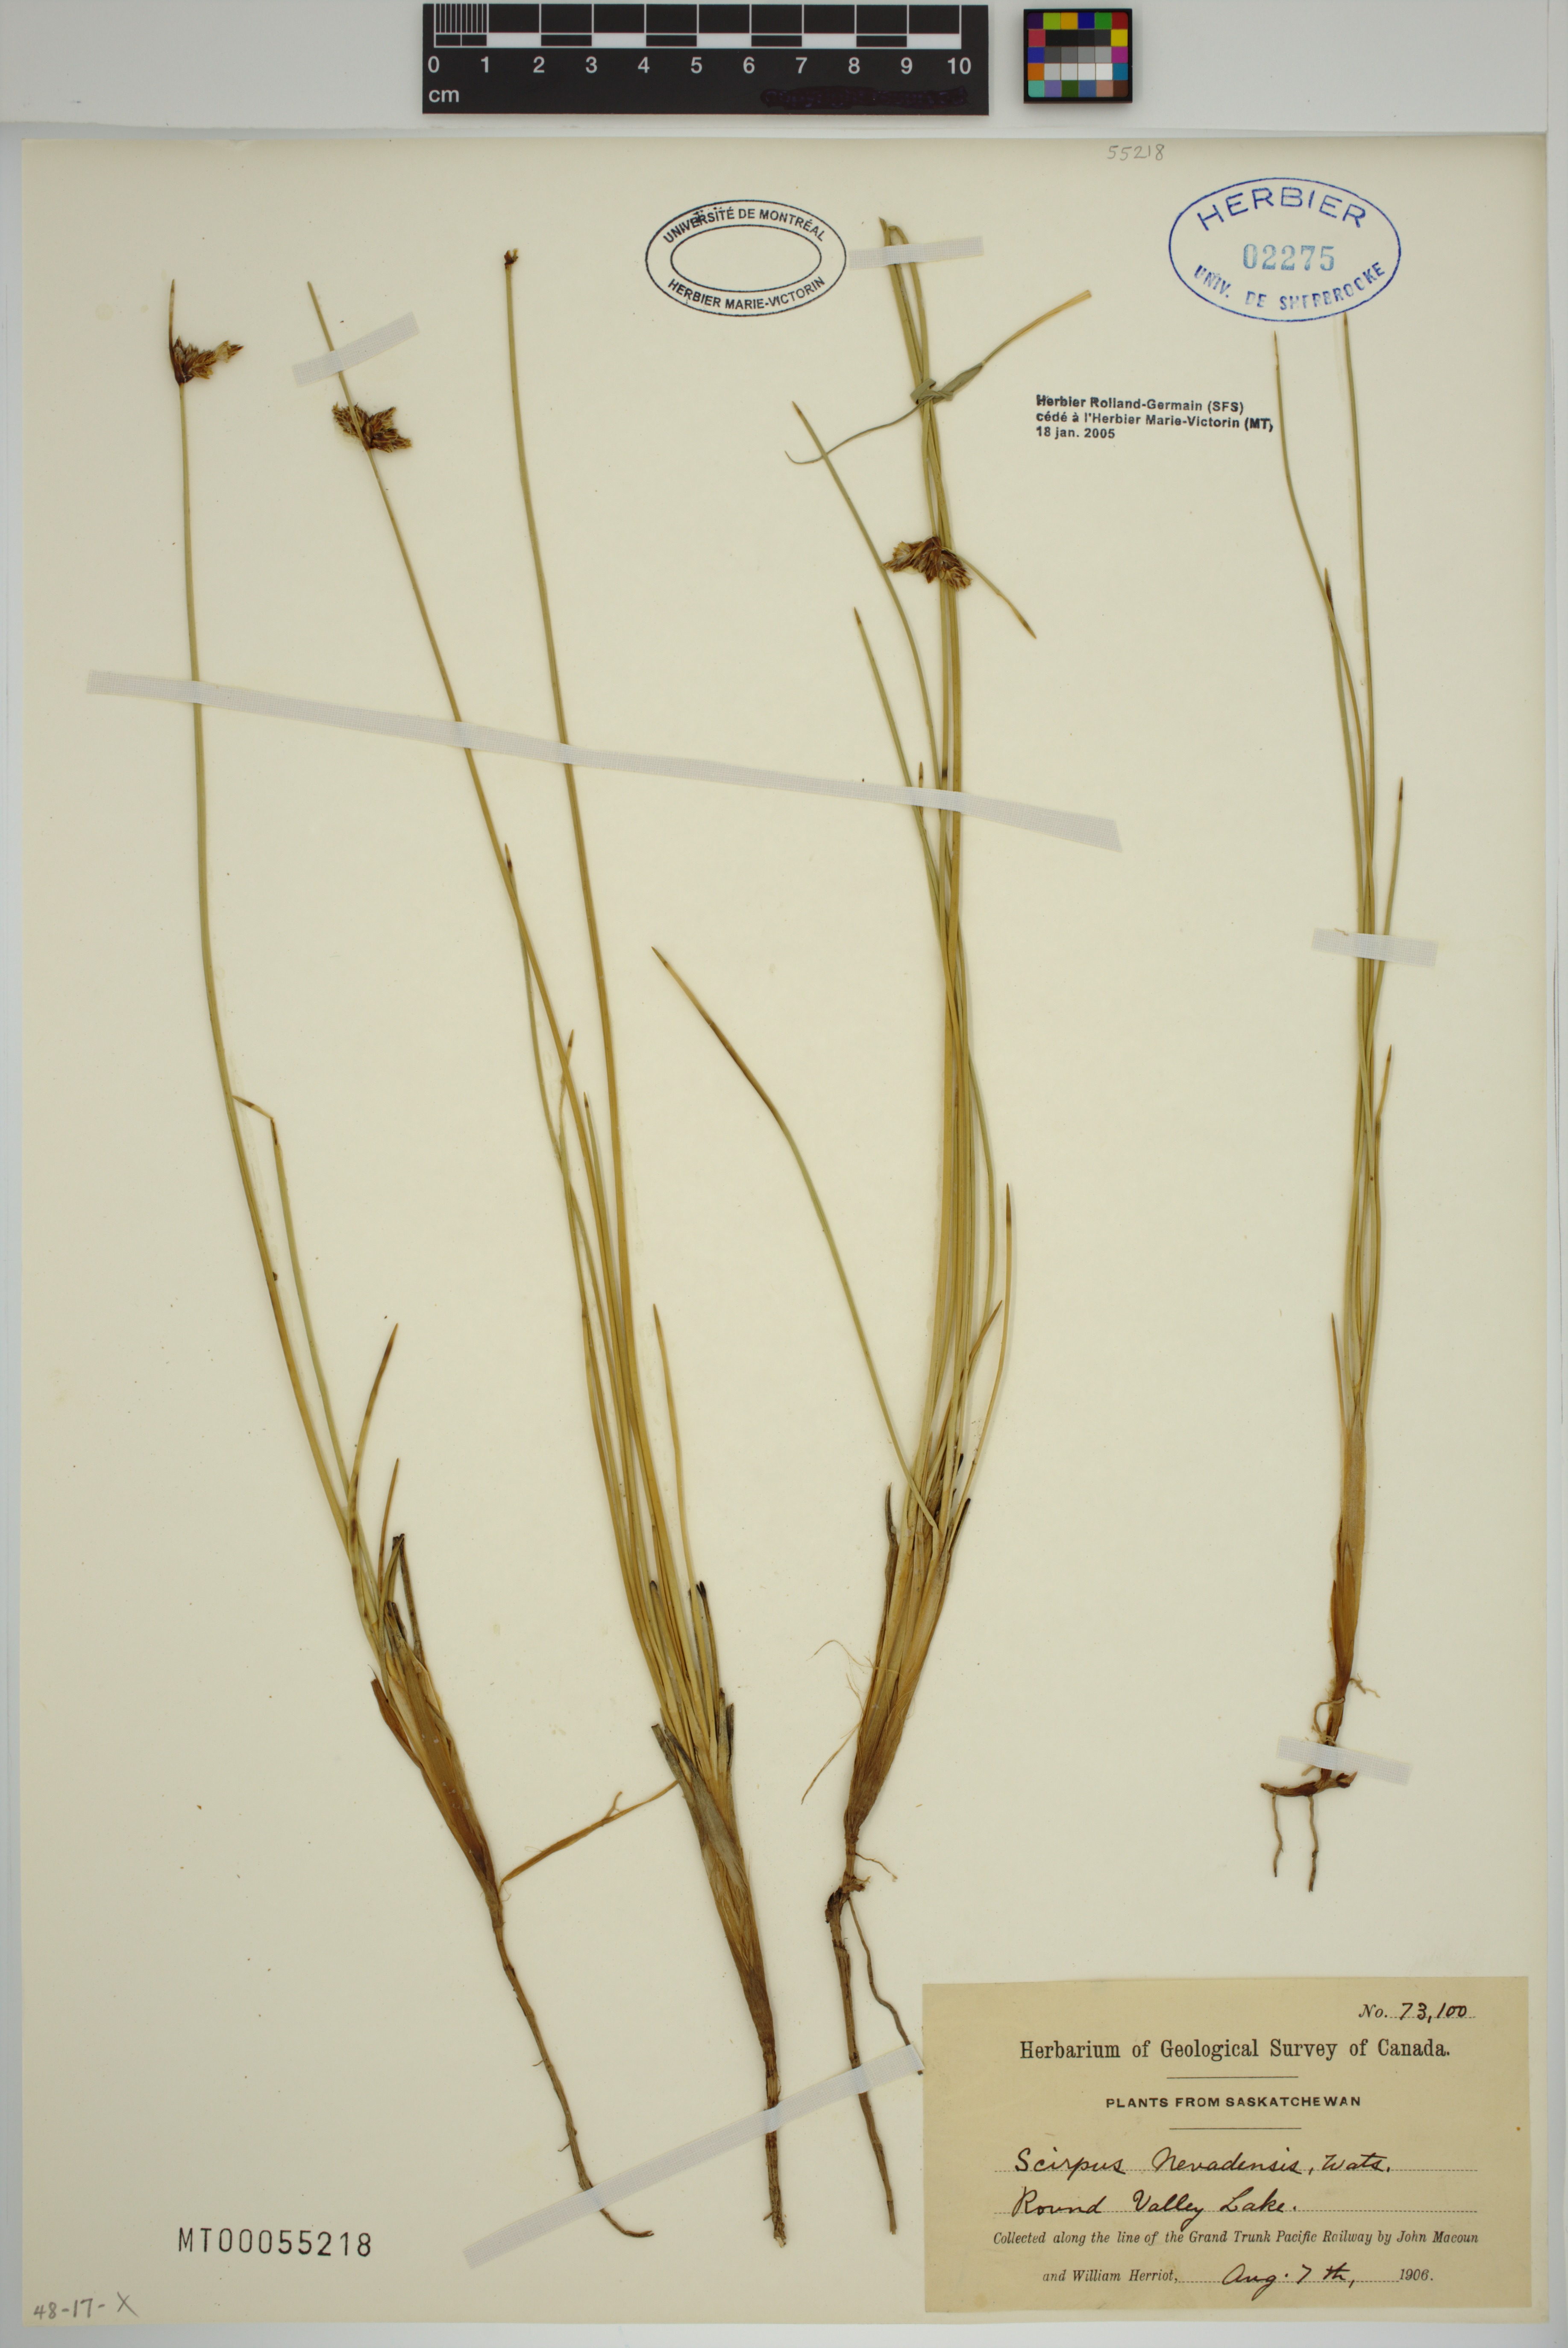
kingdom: Plantae
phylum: Tracheophyta
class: Liliopsida
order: Poales
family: Cyperaceae
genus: Amphiscirpus
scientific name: Amphiscirpus nevadensis
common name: Nevada bulrush
